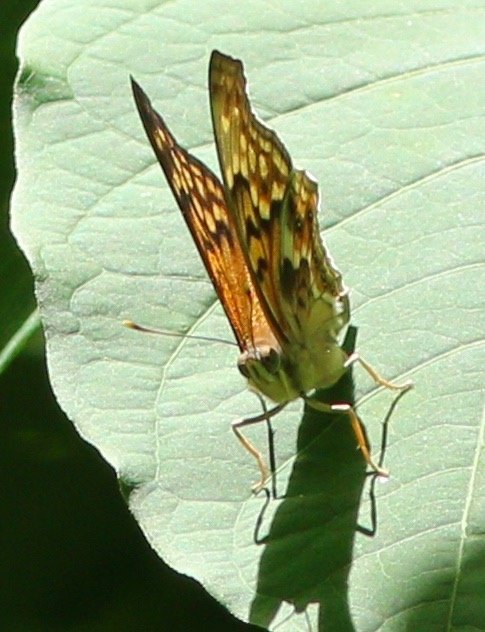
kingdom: Animalia
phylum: Arthropoda
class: Insecta
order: Lepidoptera
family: Nymphalidae
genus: Asterocampa
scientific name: Asterocampa clyton
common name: Tawny Emperor
